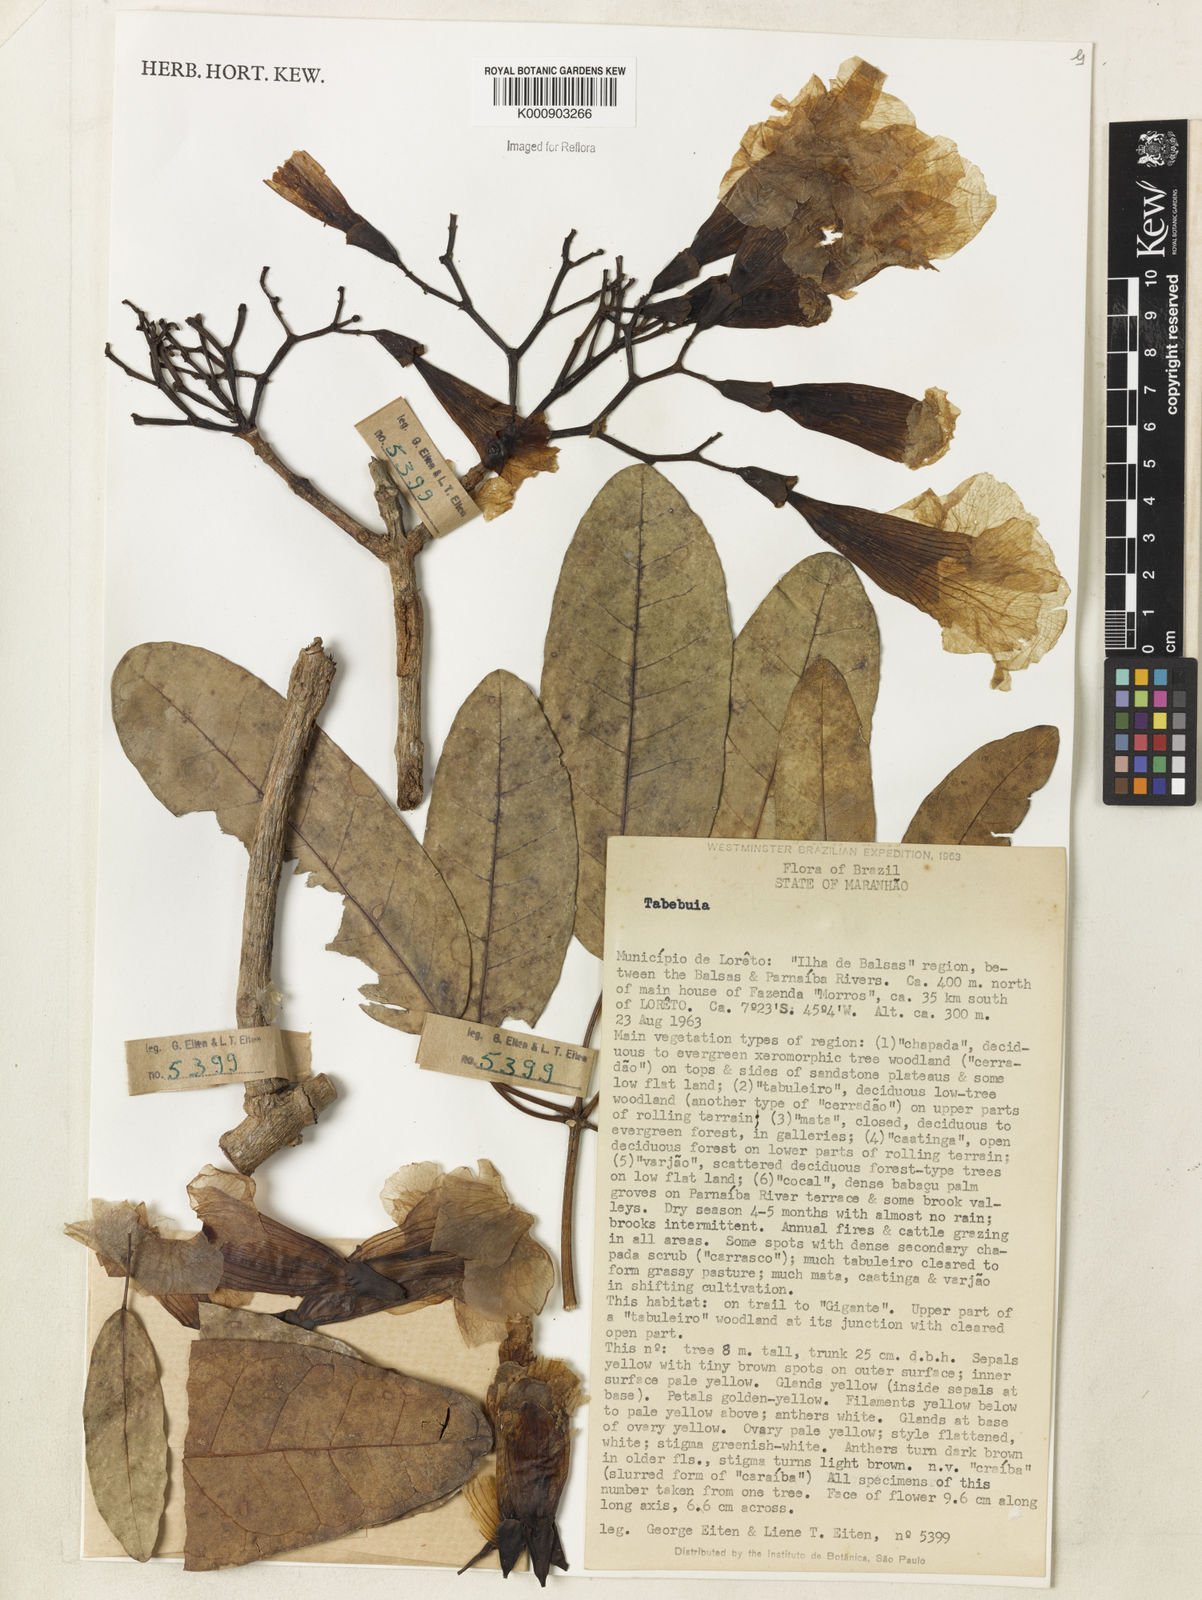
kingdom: Plantae
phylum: Tracheophyta
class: Magnoliopsida
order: Lamiales
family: Bignoniaceae
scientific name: Bignoniaceae
